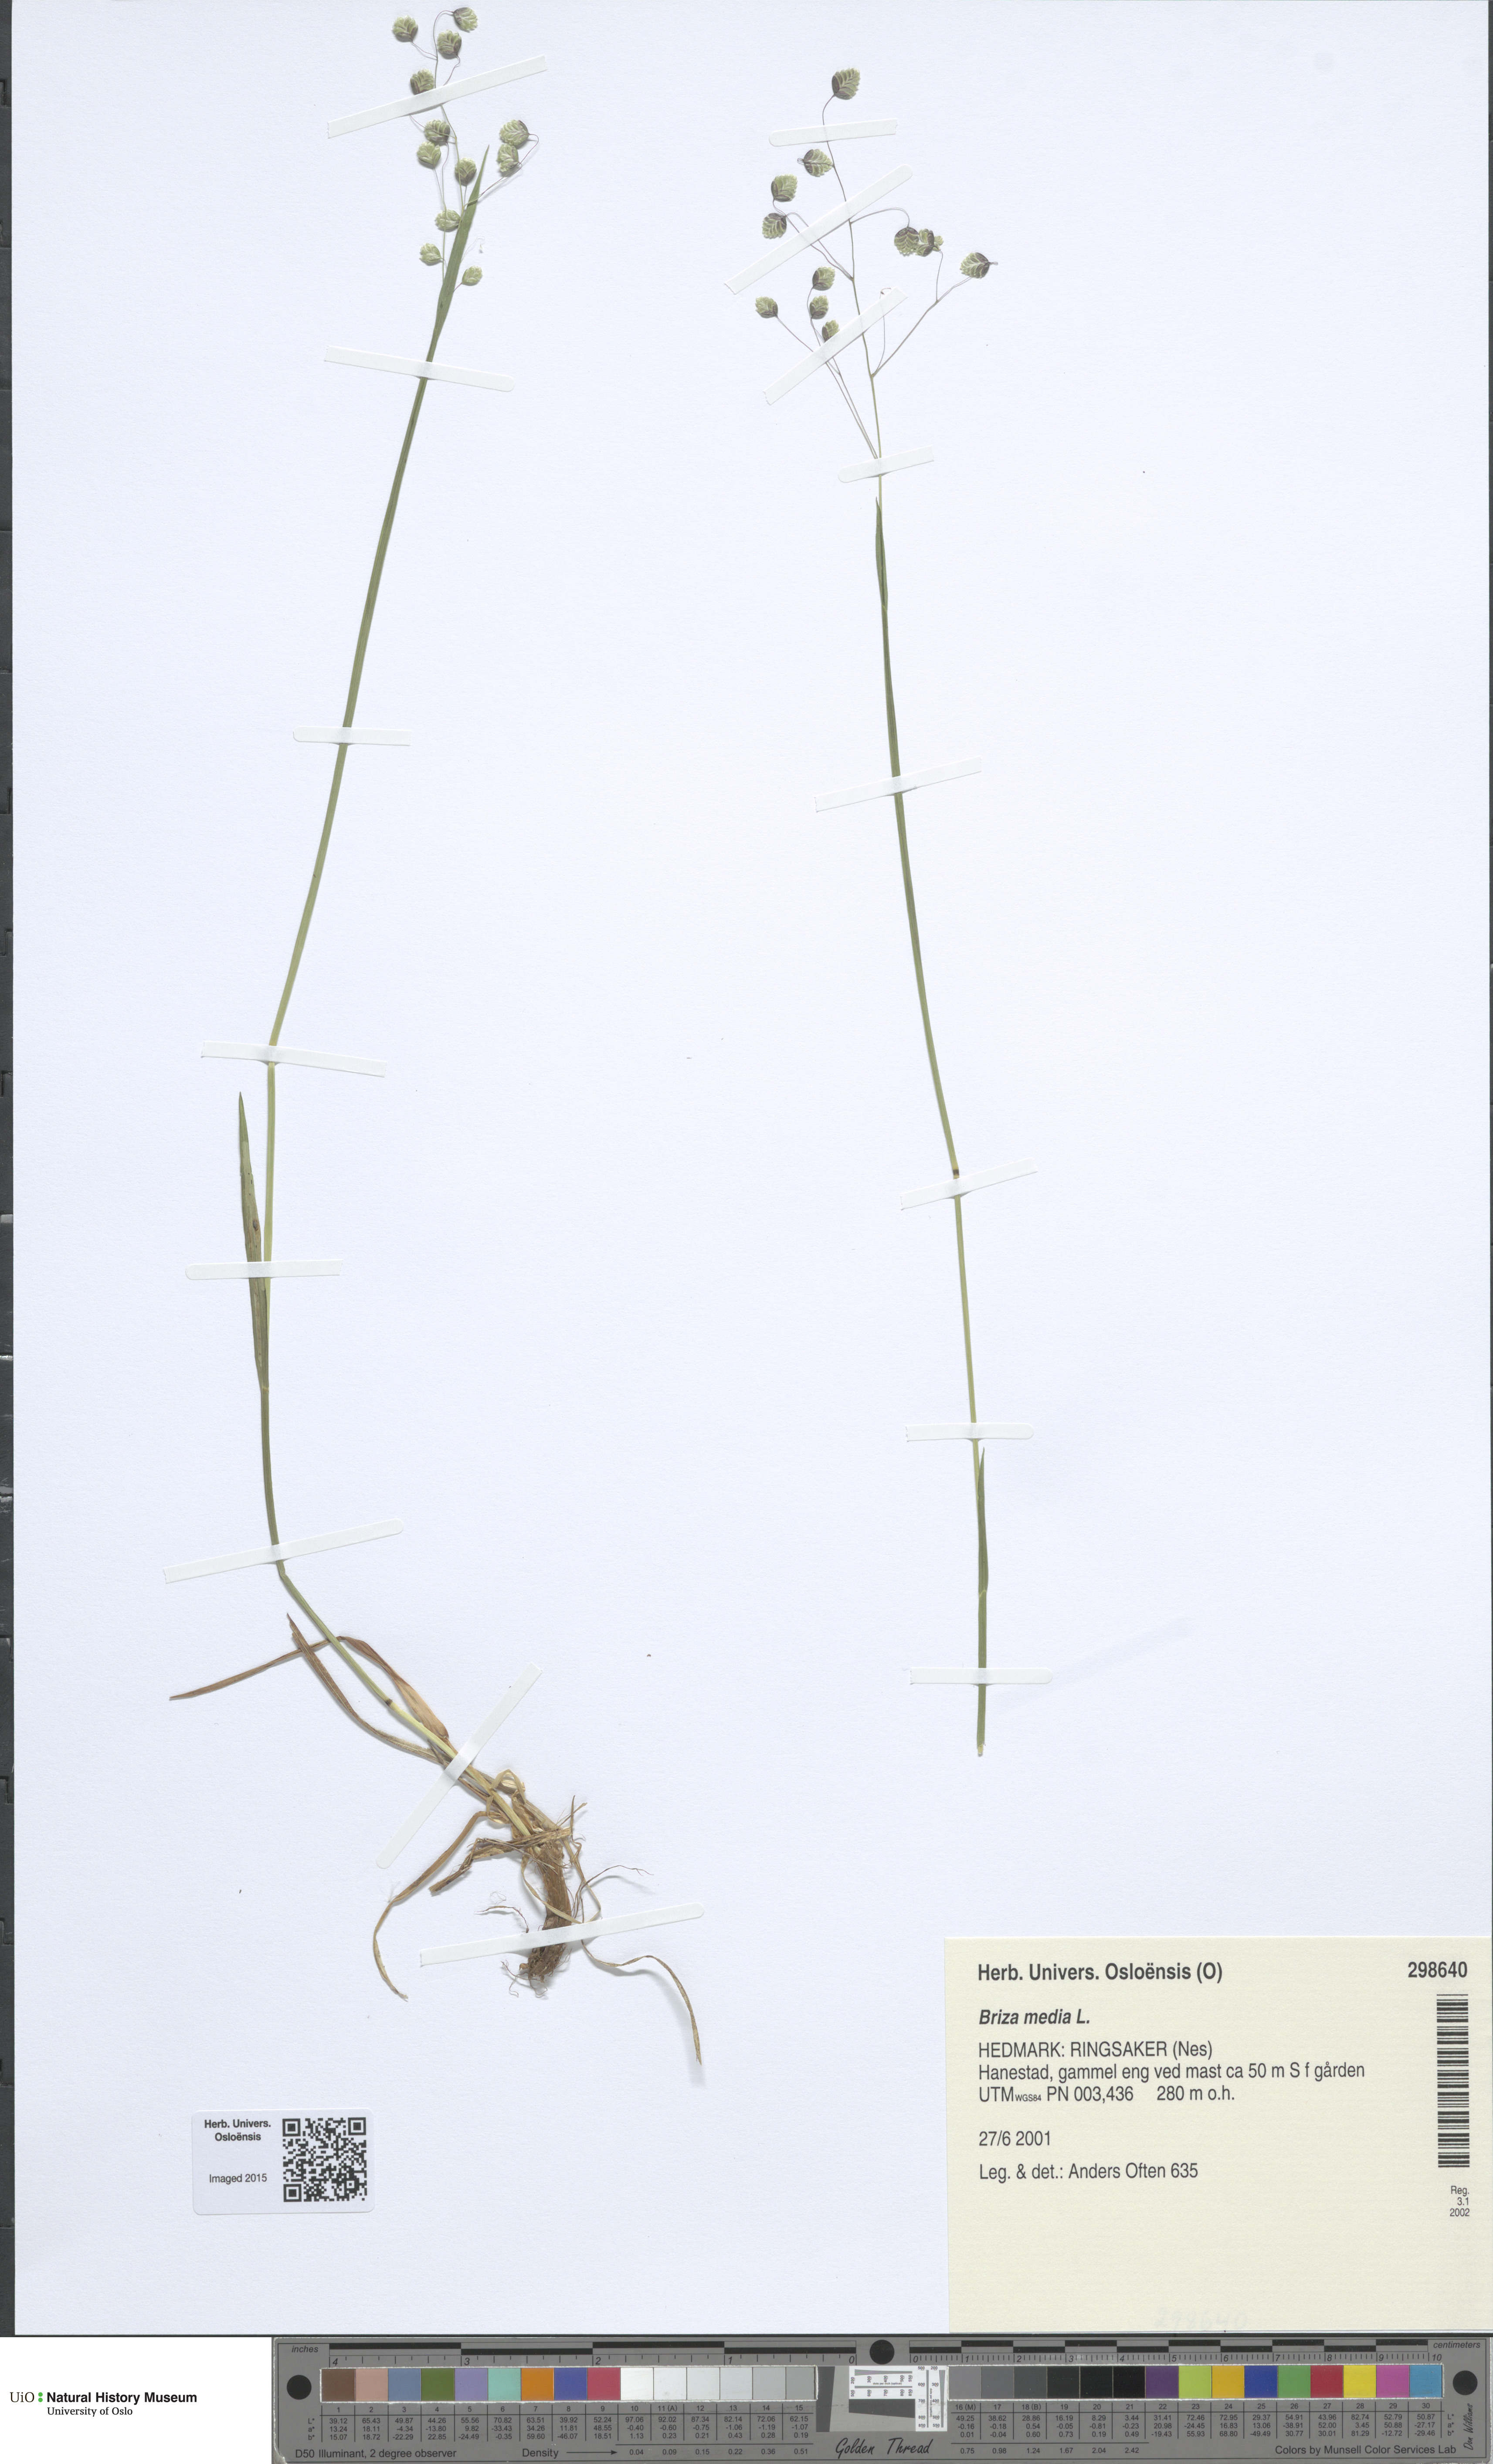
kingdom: Plantae
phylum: Tracheophyta
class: Liliopsida
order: Poales
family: Poaceae
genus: Briza
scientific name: Briza media
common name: Quaking grass
